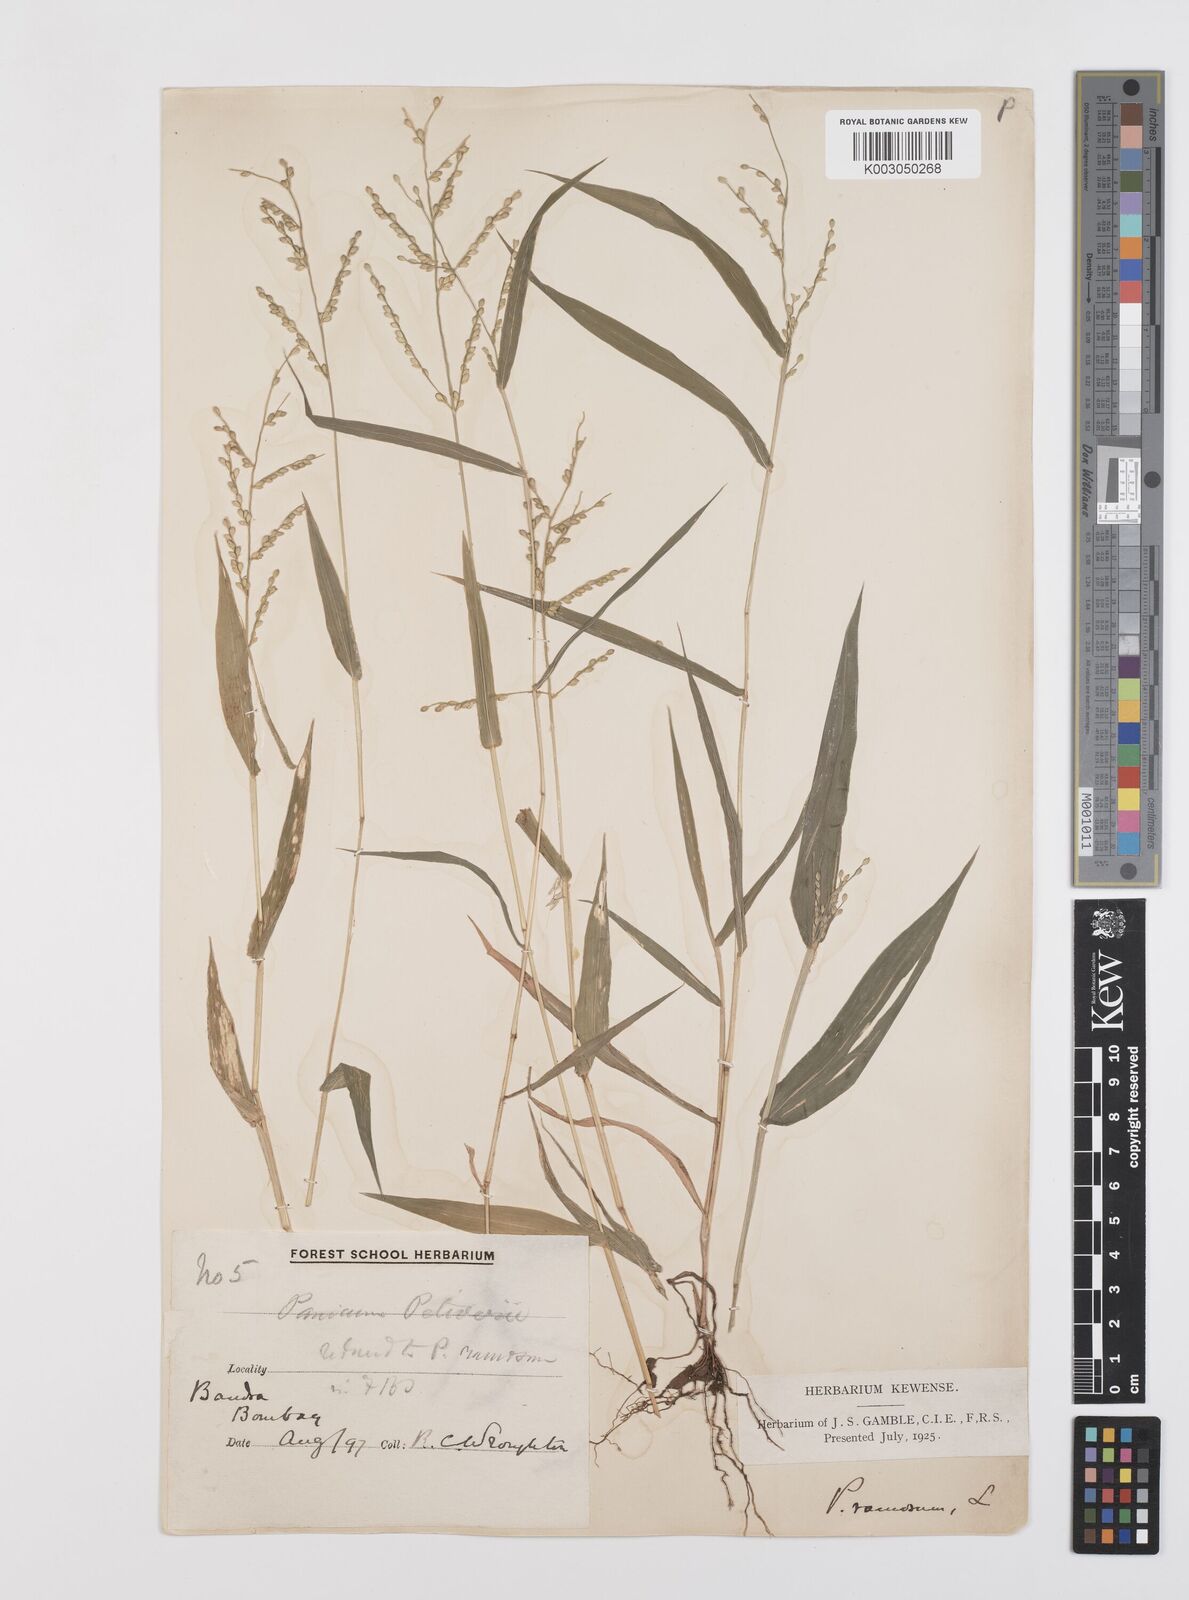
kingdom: Plantae
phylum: Tracheophyta
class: Liliopsida
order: Poales
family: Poaceae
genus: Urochloa
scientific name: Urochloa ramosa
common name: Browntop millet
